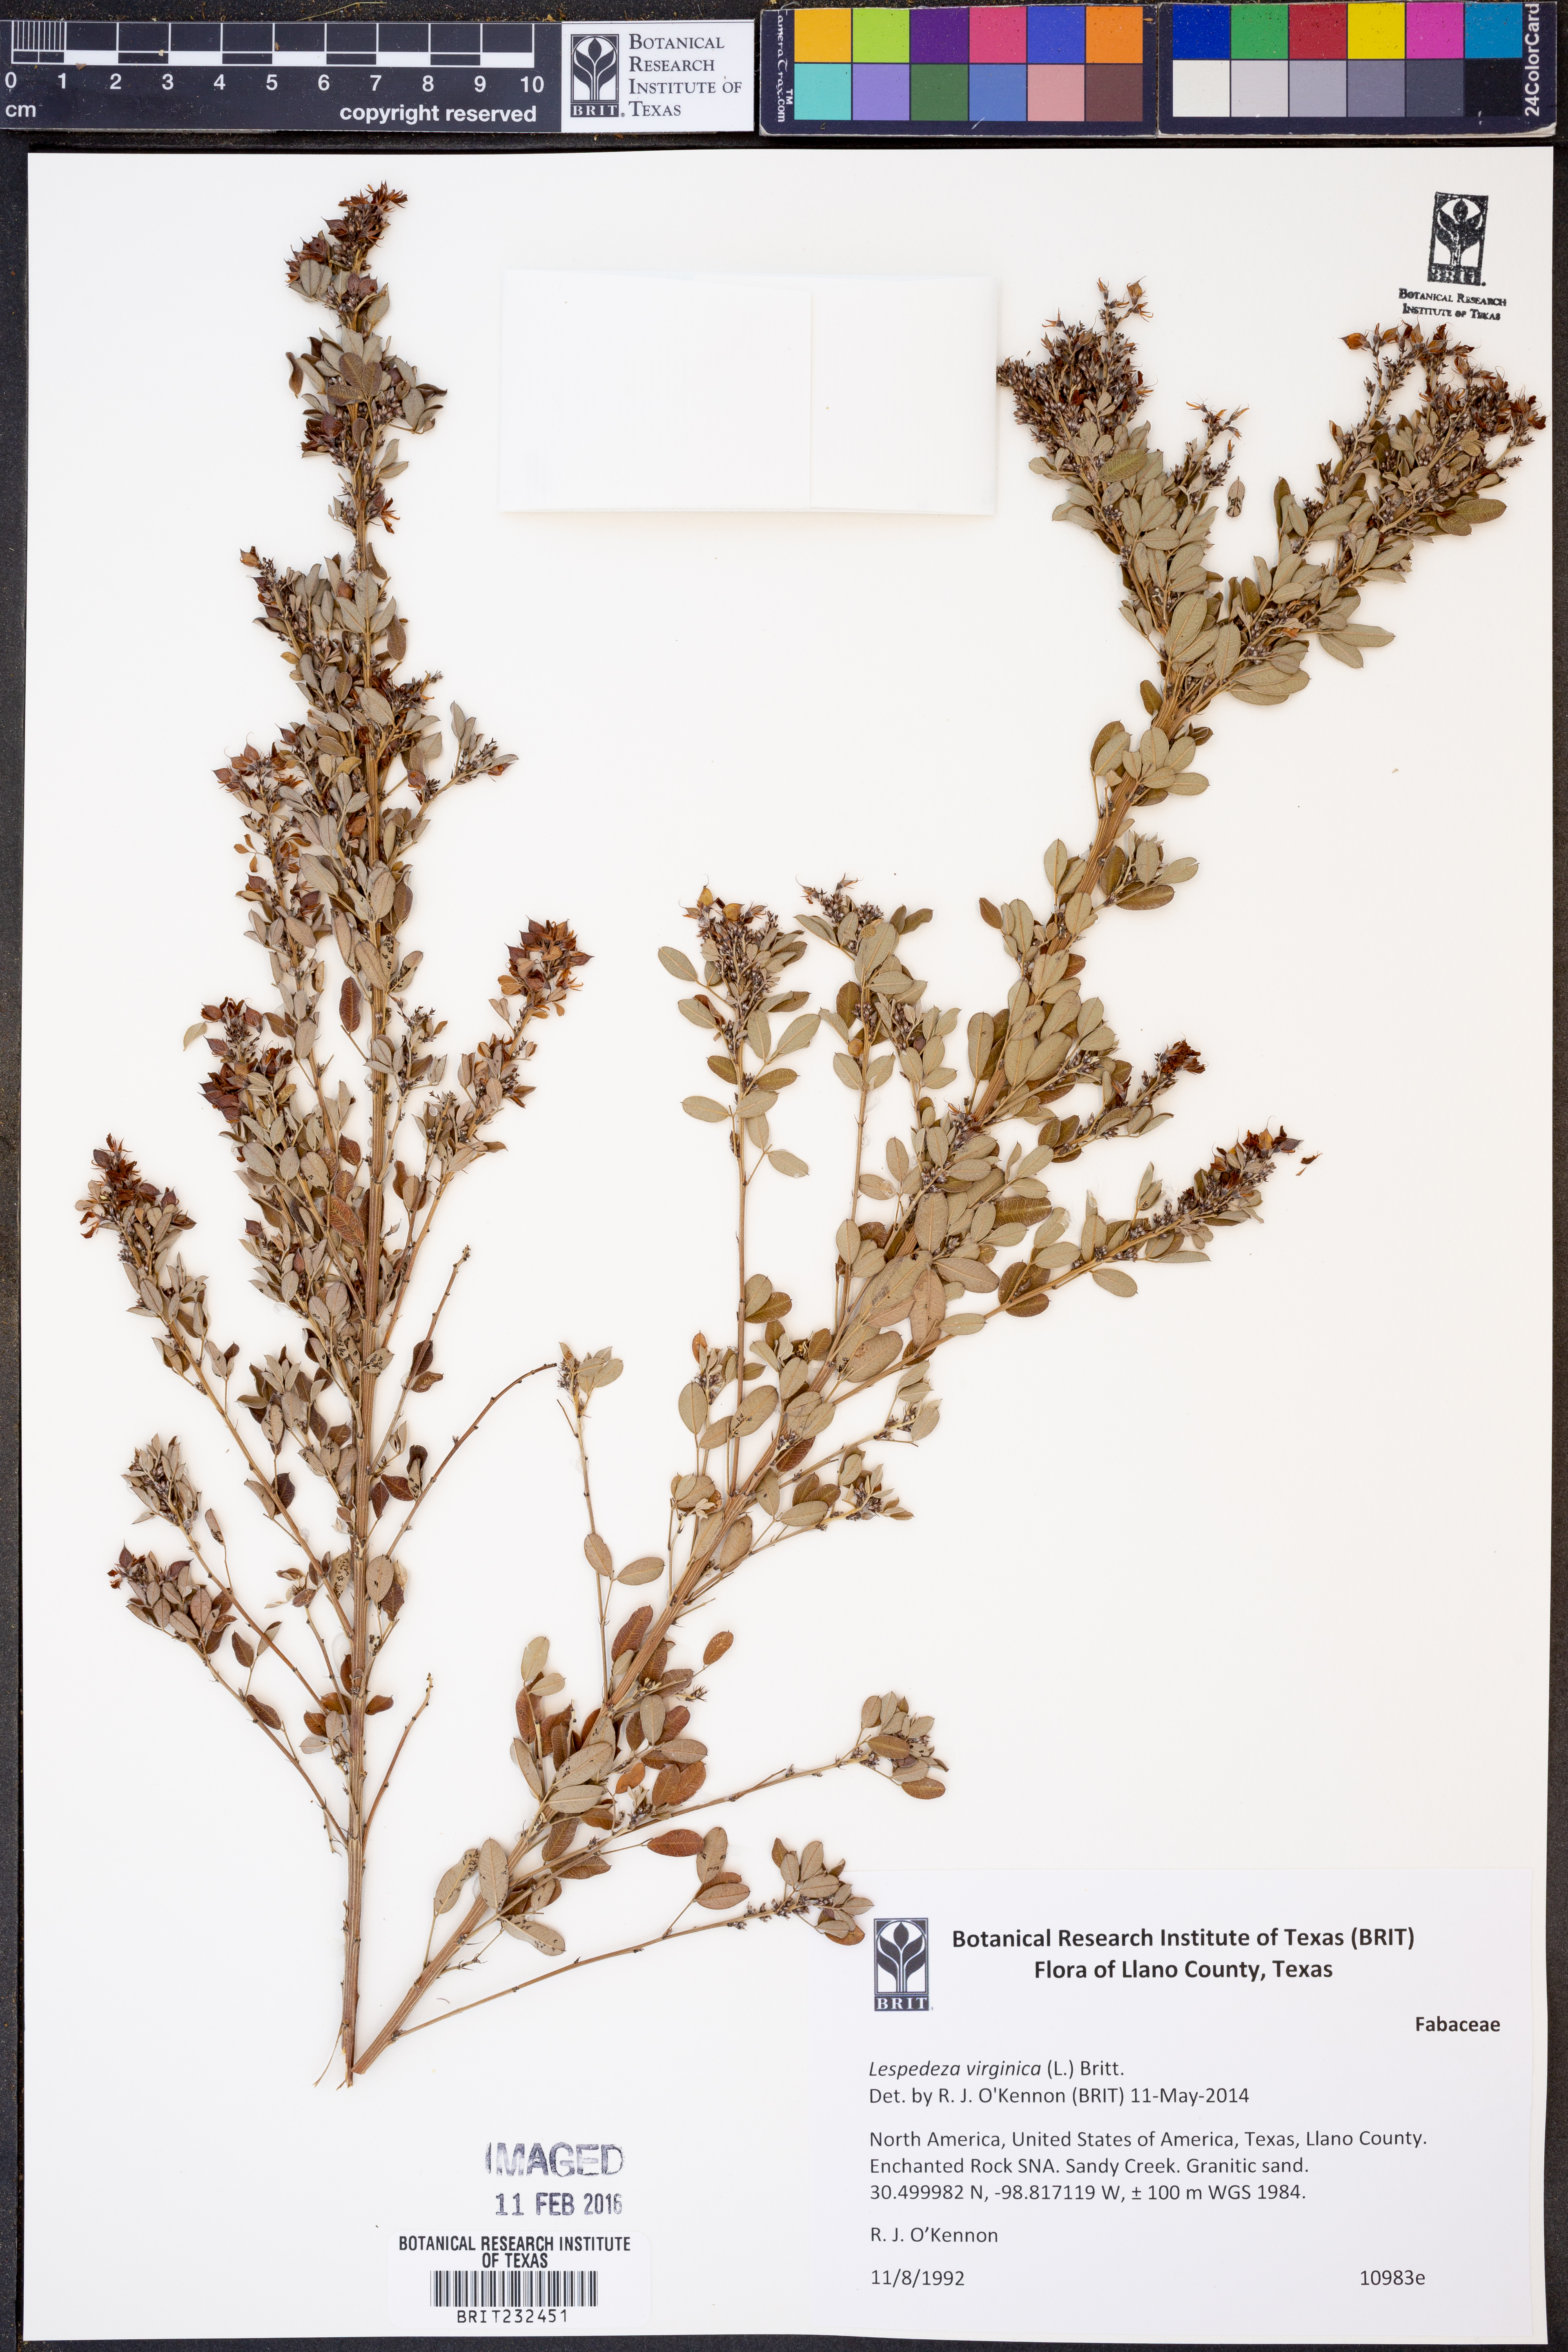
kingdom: Plantae
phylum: Tracheophyta
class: Magnoliopsida
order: Fabales
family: Fabaceae
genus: Lespedeza
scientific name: Lespedeza virginica
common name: Slender bush-clover
